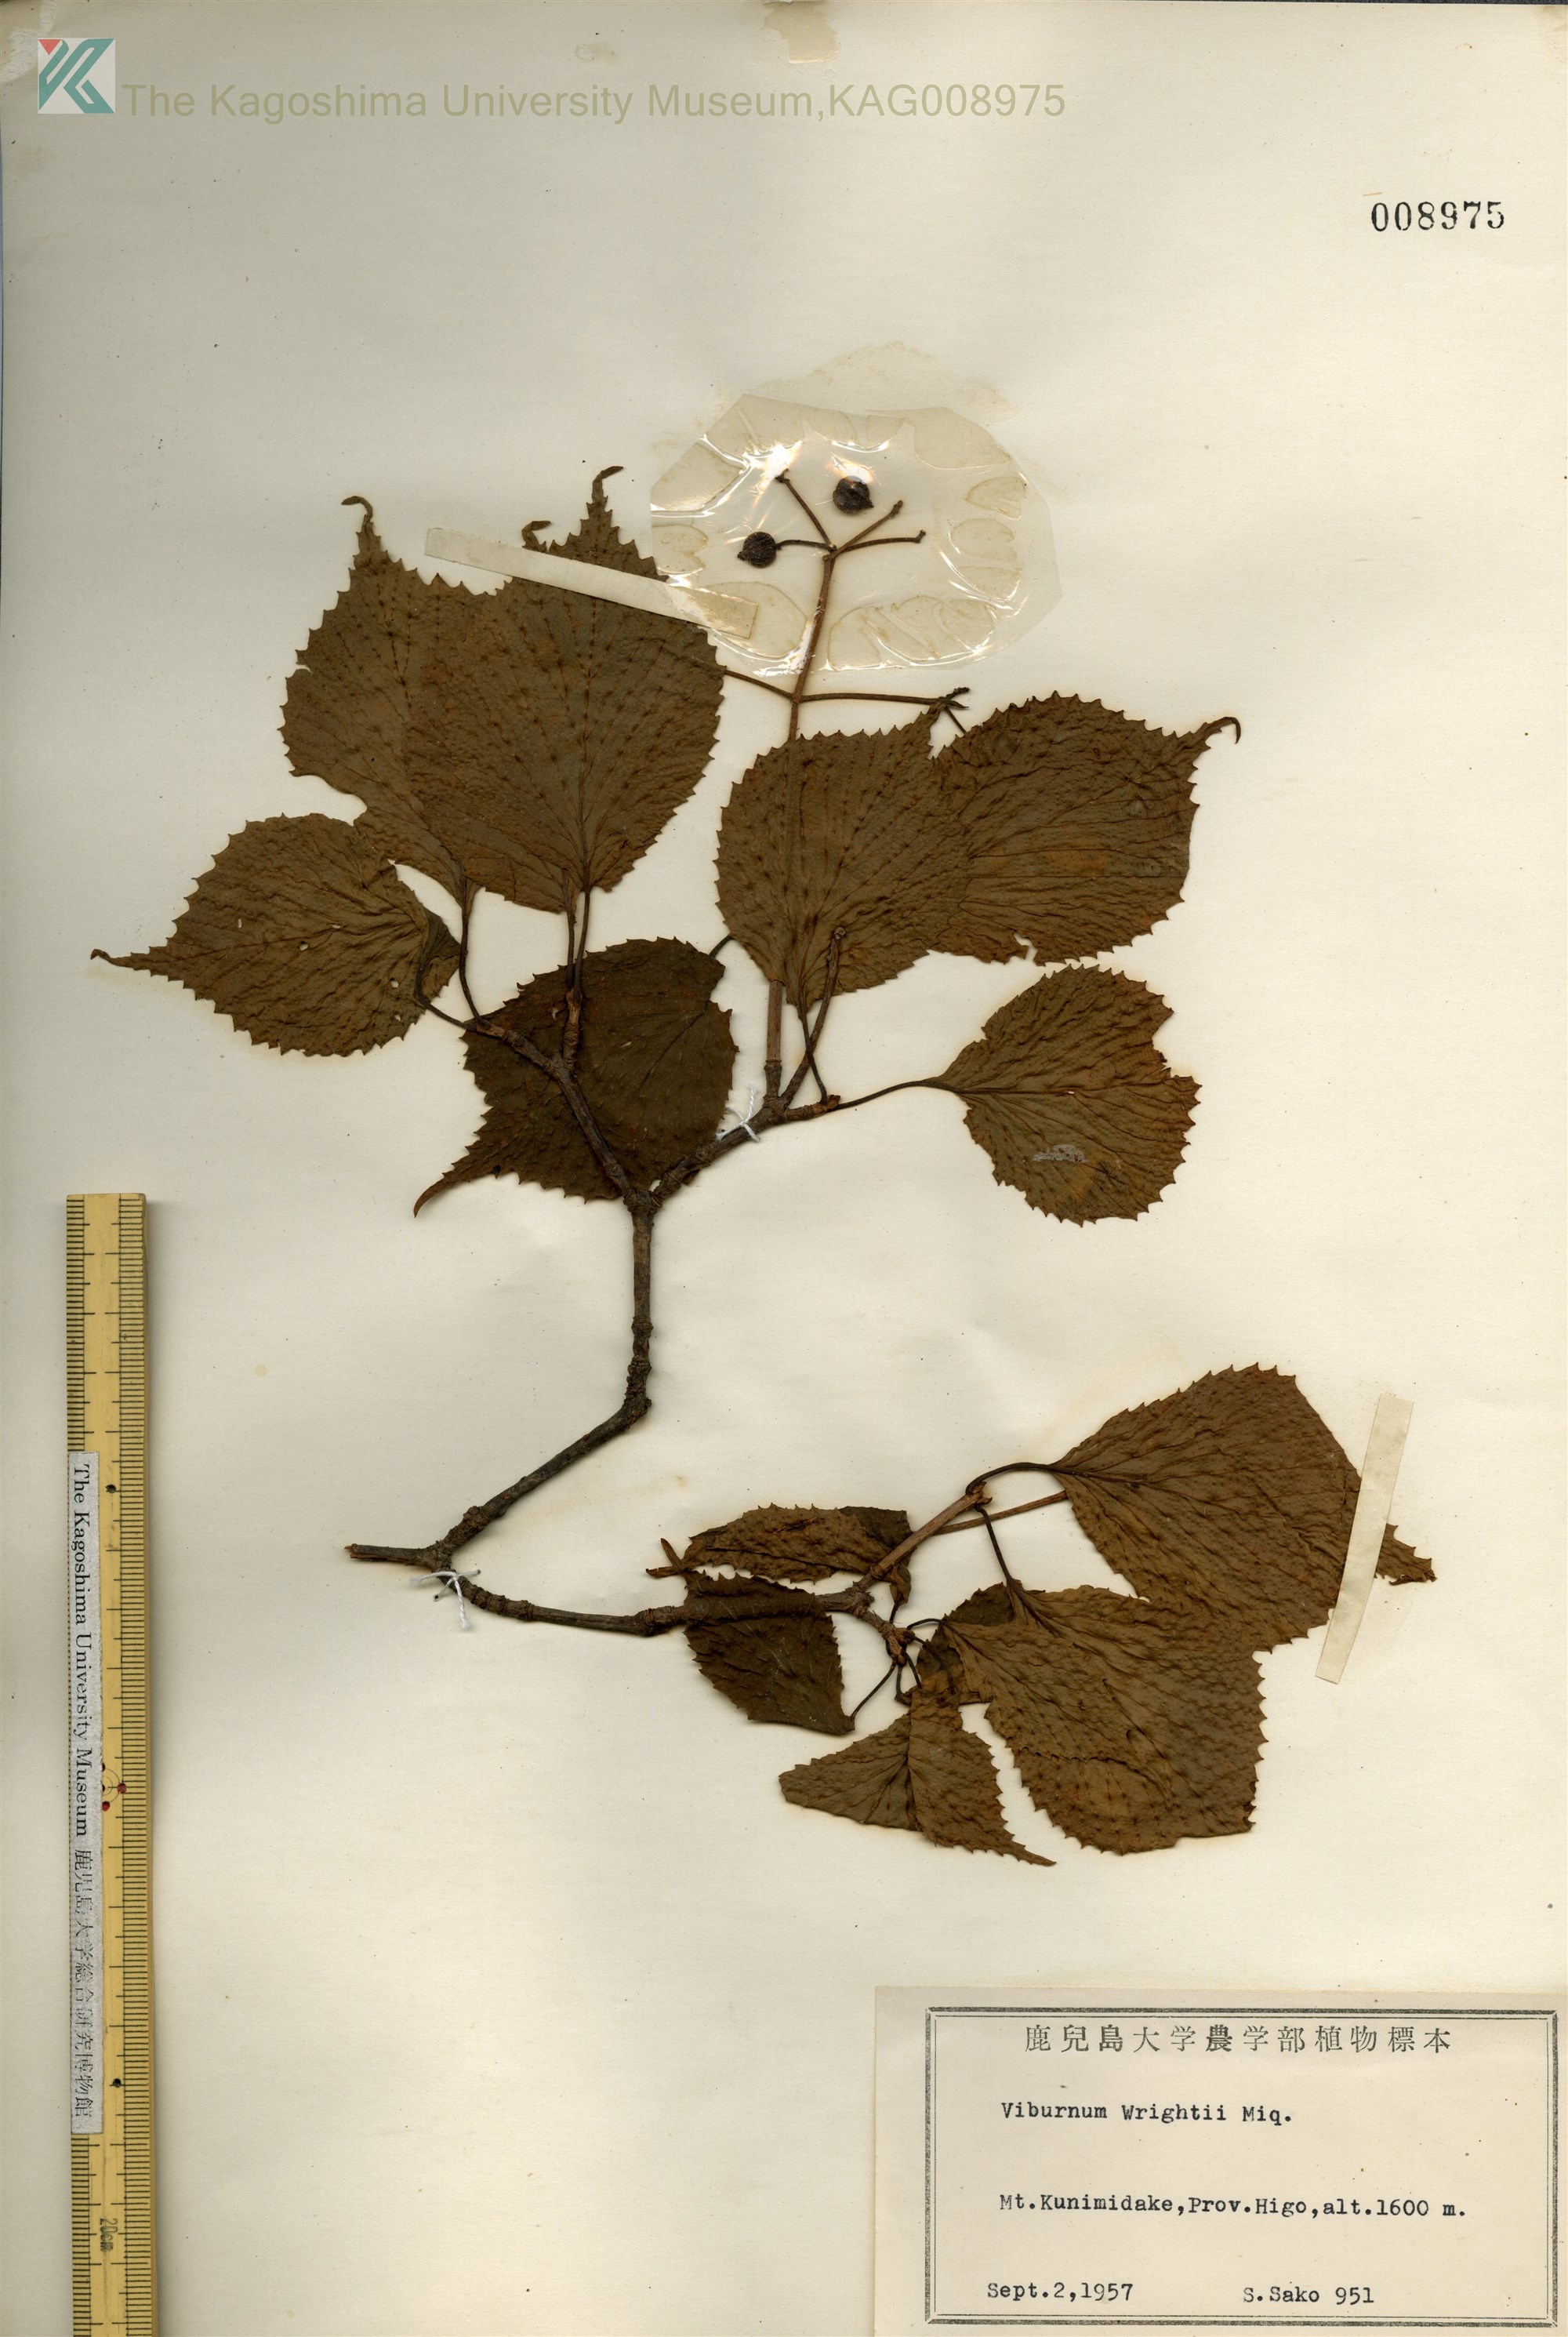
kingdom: Plantae
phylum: Tracheophyta
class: Magnoliopsida
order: Dipsacales
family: Viburnaceae
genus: Viburnum
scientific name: Viburnum wrightii
